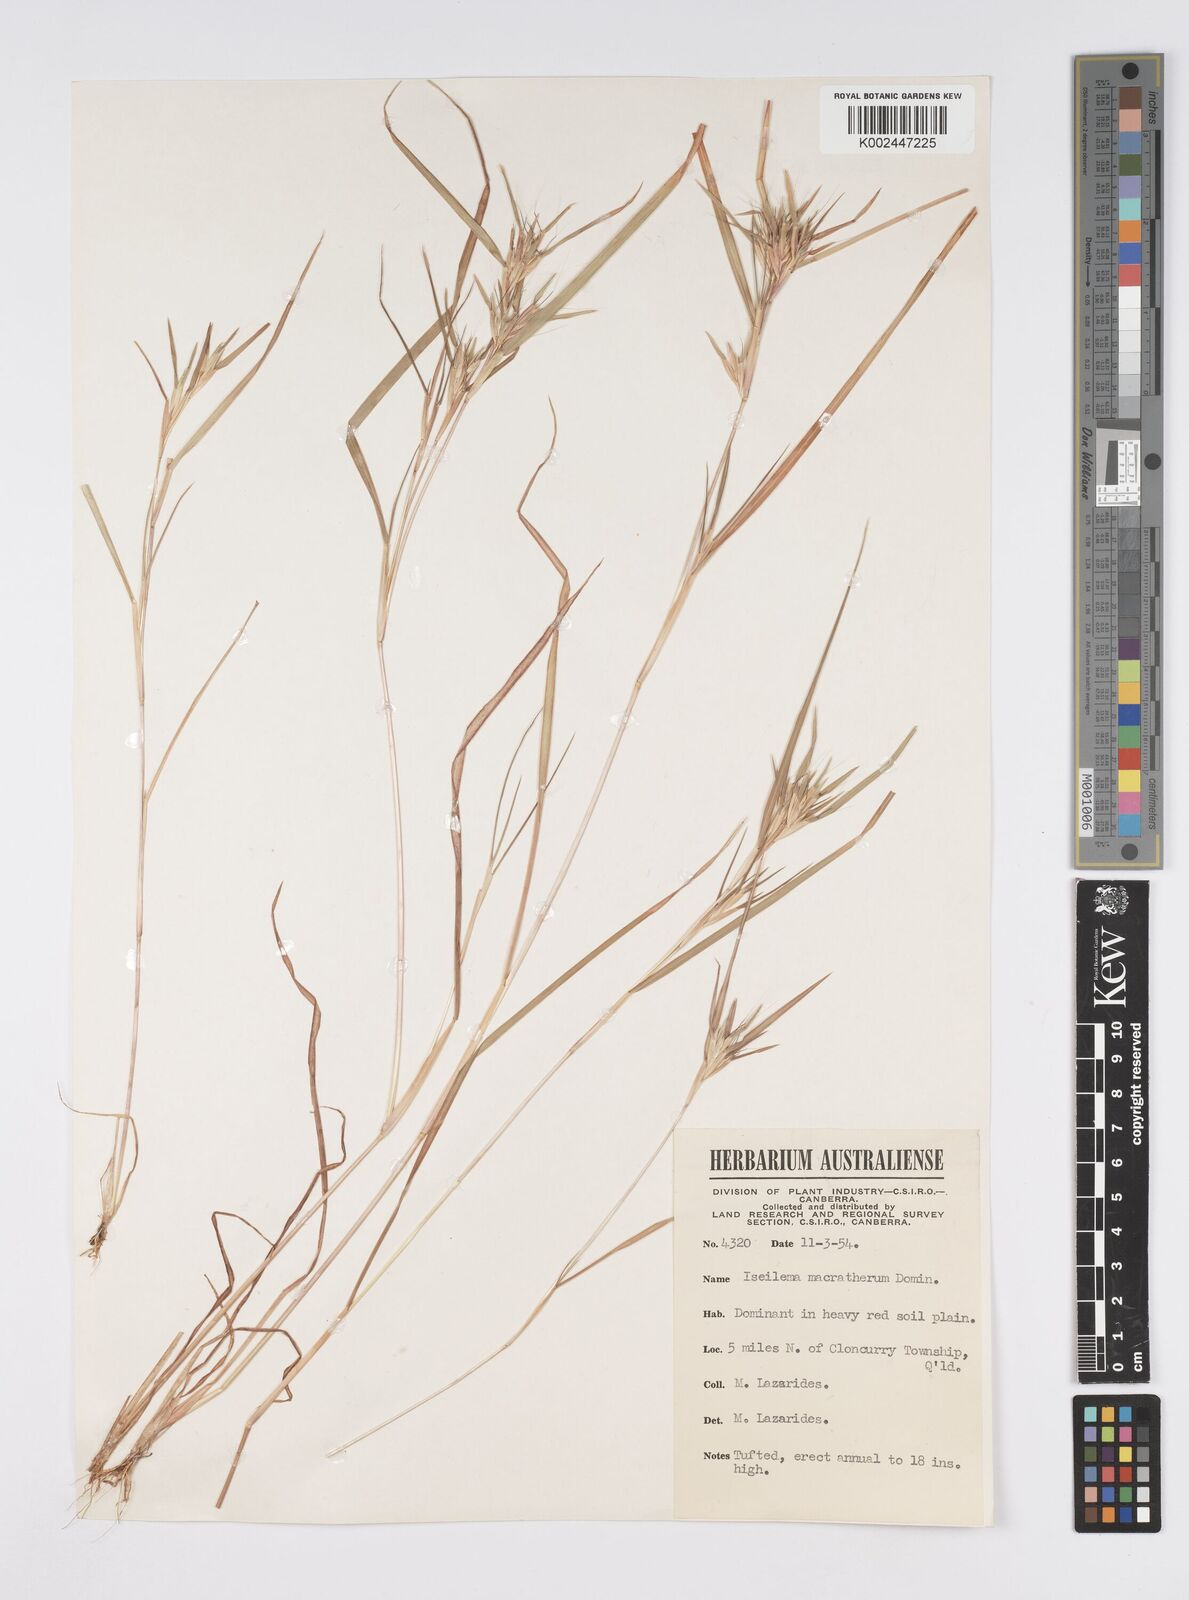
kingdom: Plantae
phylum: Tracheophyta
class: Liliopsida
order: Poales
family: Poaceae
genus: Iseilema
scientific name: Iseilema macratherum
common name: Bull flinders grass
